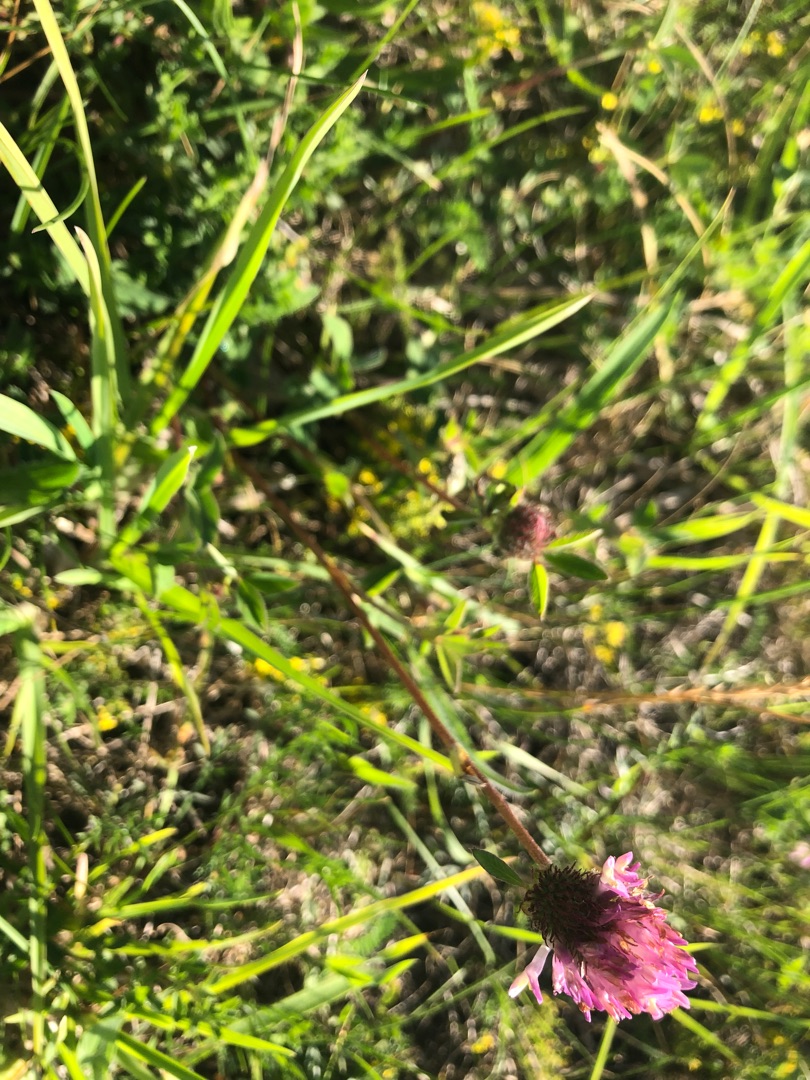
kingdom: Plantae
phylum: Tracheophyta
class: Magnoliopsida
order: Fabales
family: Fabaceae
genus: Trifolium
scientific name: Trifolium medium
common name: Bugtet kløver
